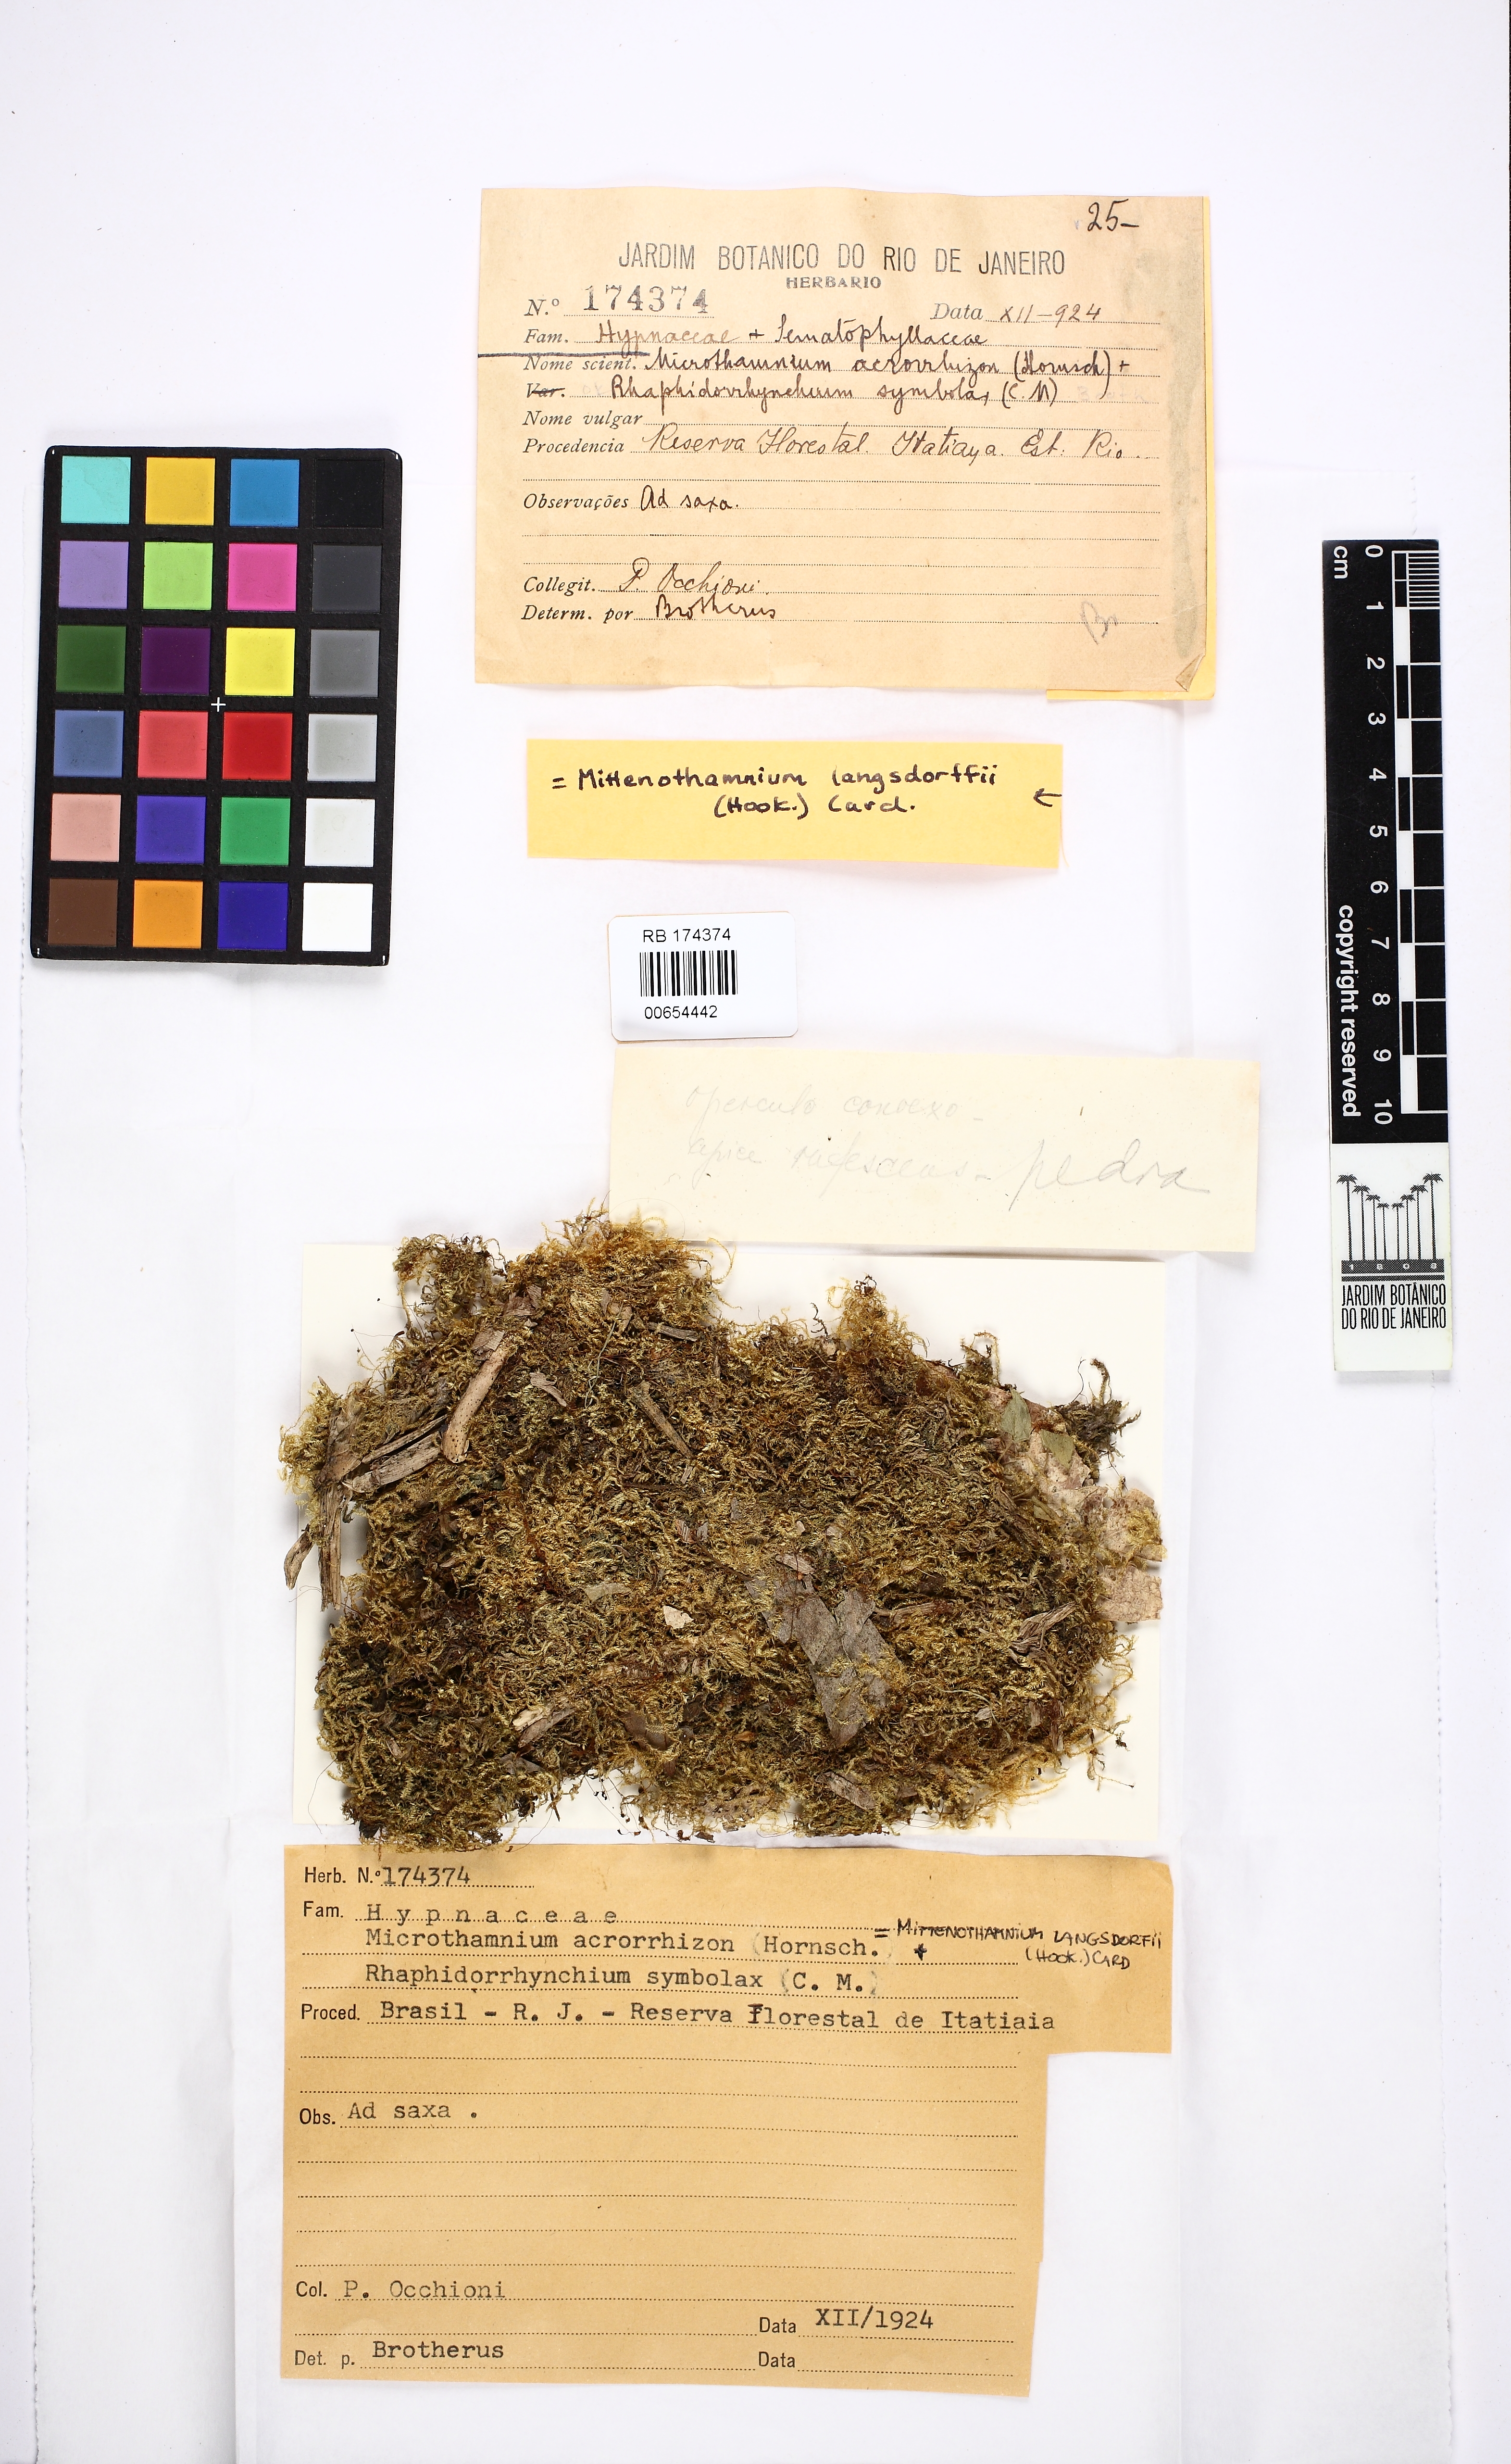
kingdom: Plantae
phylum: Bryophyta
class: Bryopsida
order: Hypnales
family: Hypnaceae
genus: Mittenothamnium
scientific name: Mittenothamnium langsdorffii
